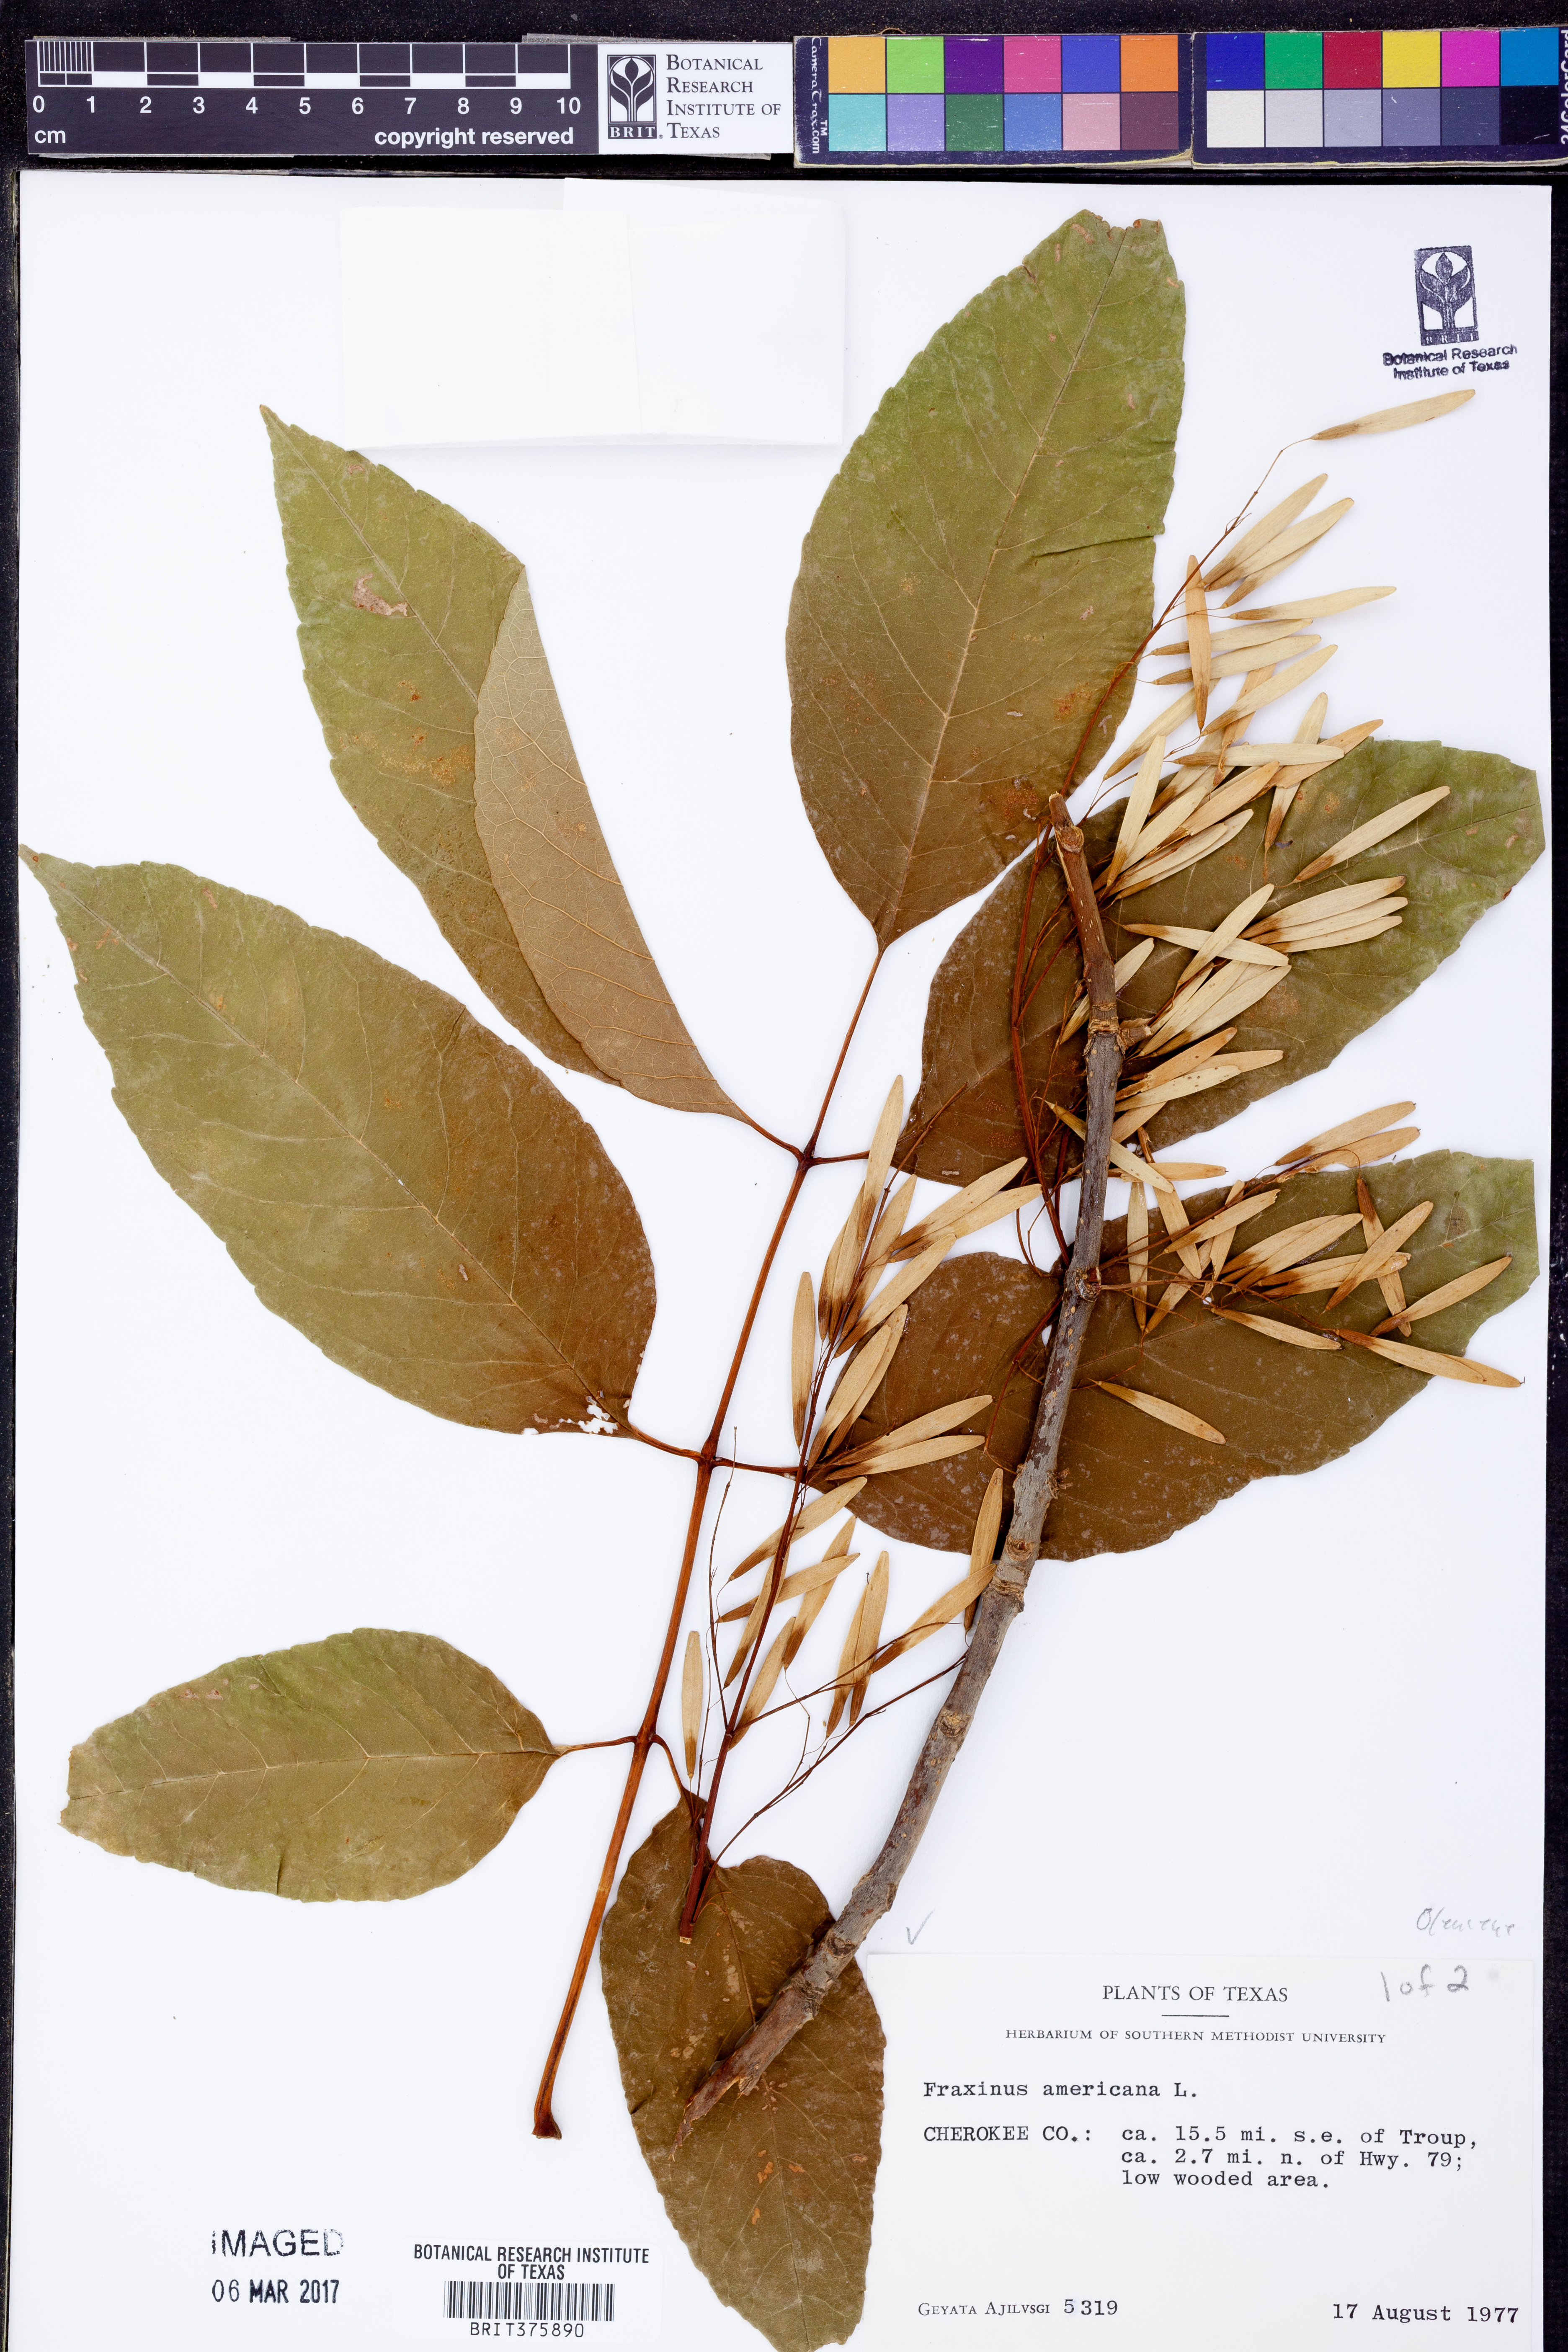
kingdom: Plantae
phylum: Tracheophyta
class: Magnoliopsida
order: Lamiales
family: Oleaceae
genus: Fraxinus
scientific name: Fraxinus americana
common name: White ash
